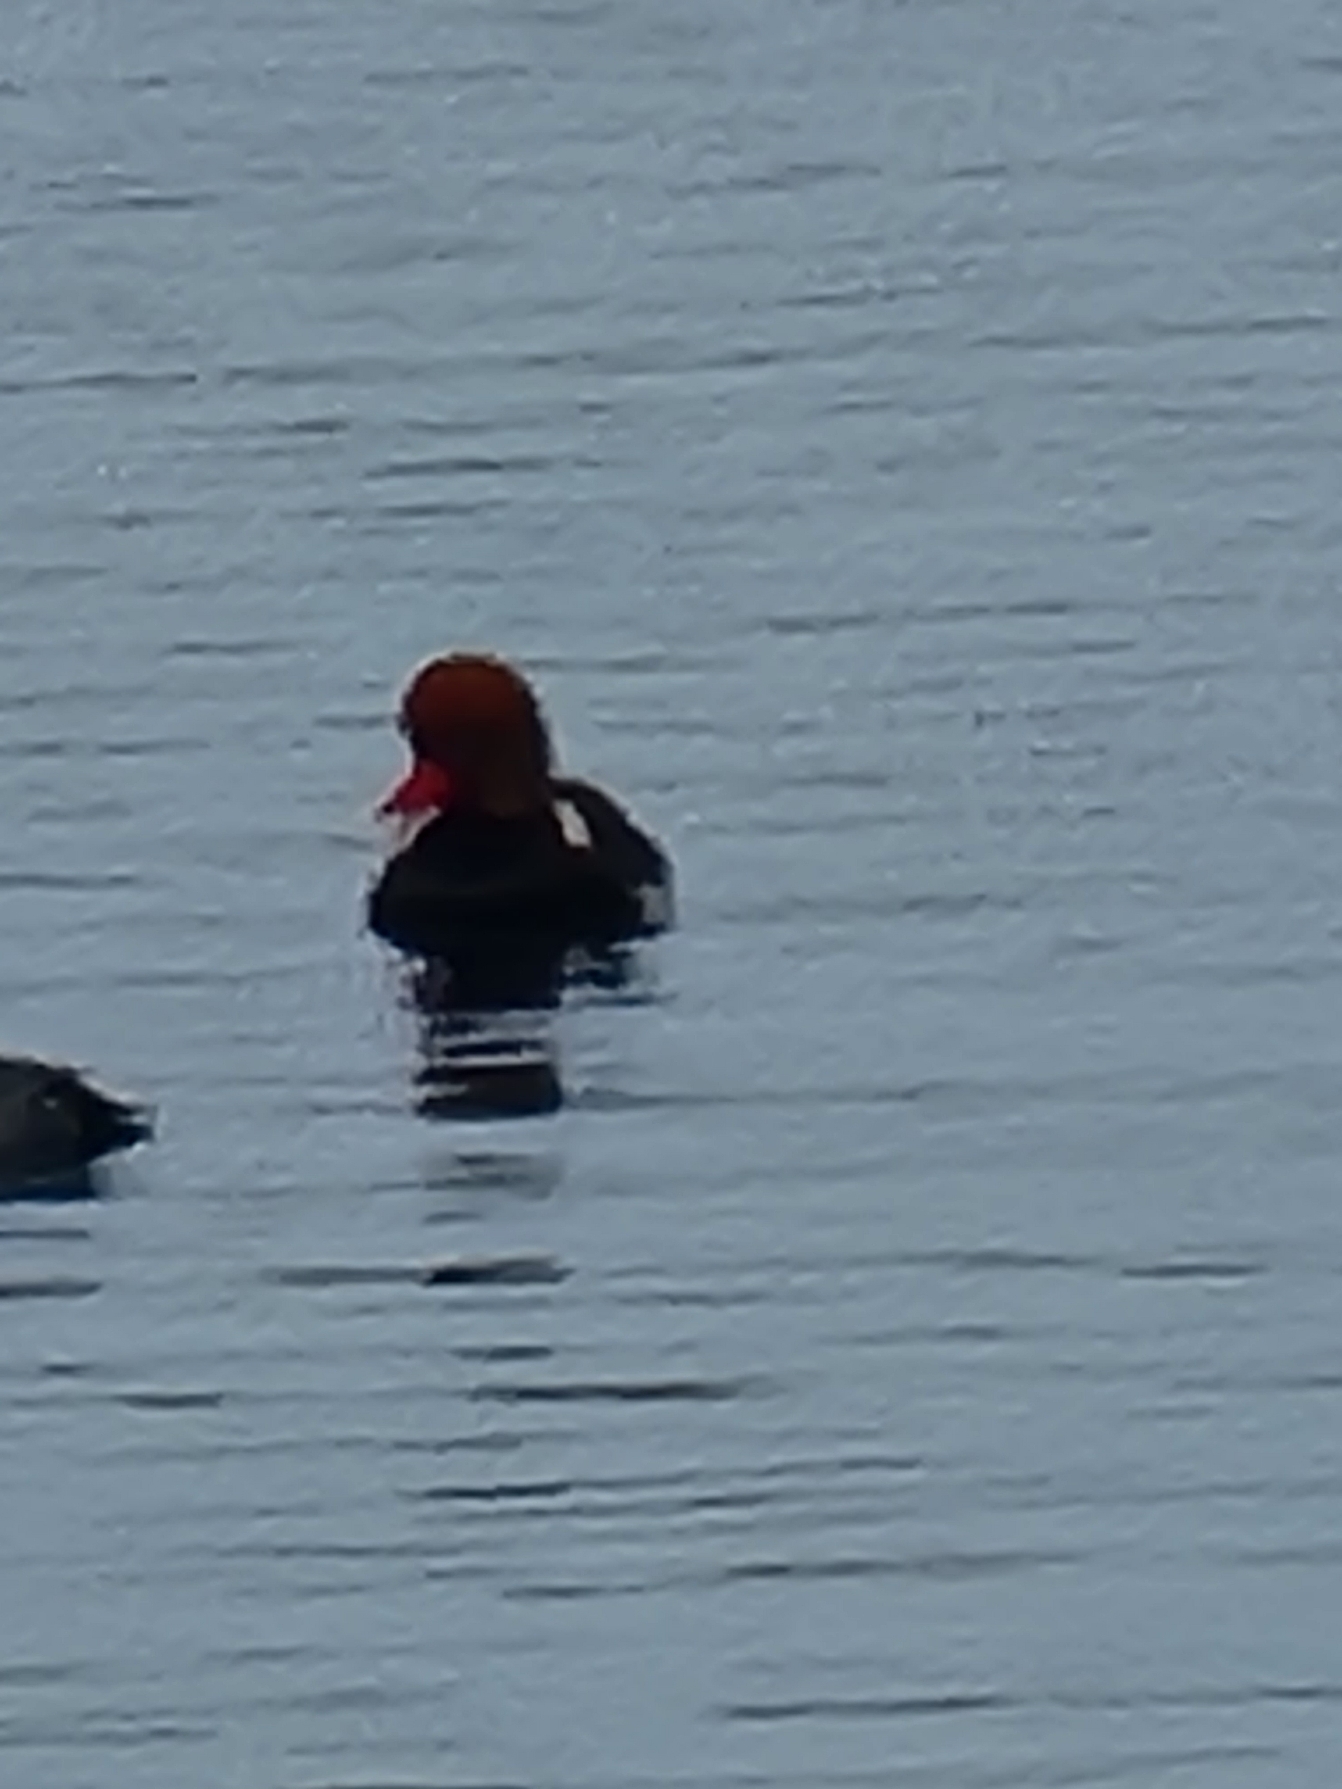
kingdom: Animalia
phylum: Chordata
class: Aves
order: Anseriformes
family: Anatidae
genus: Netta
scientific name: Netta rufina
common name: Rødhovedet and
